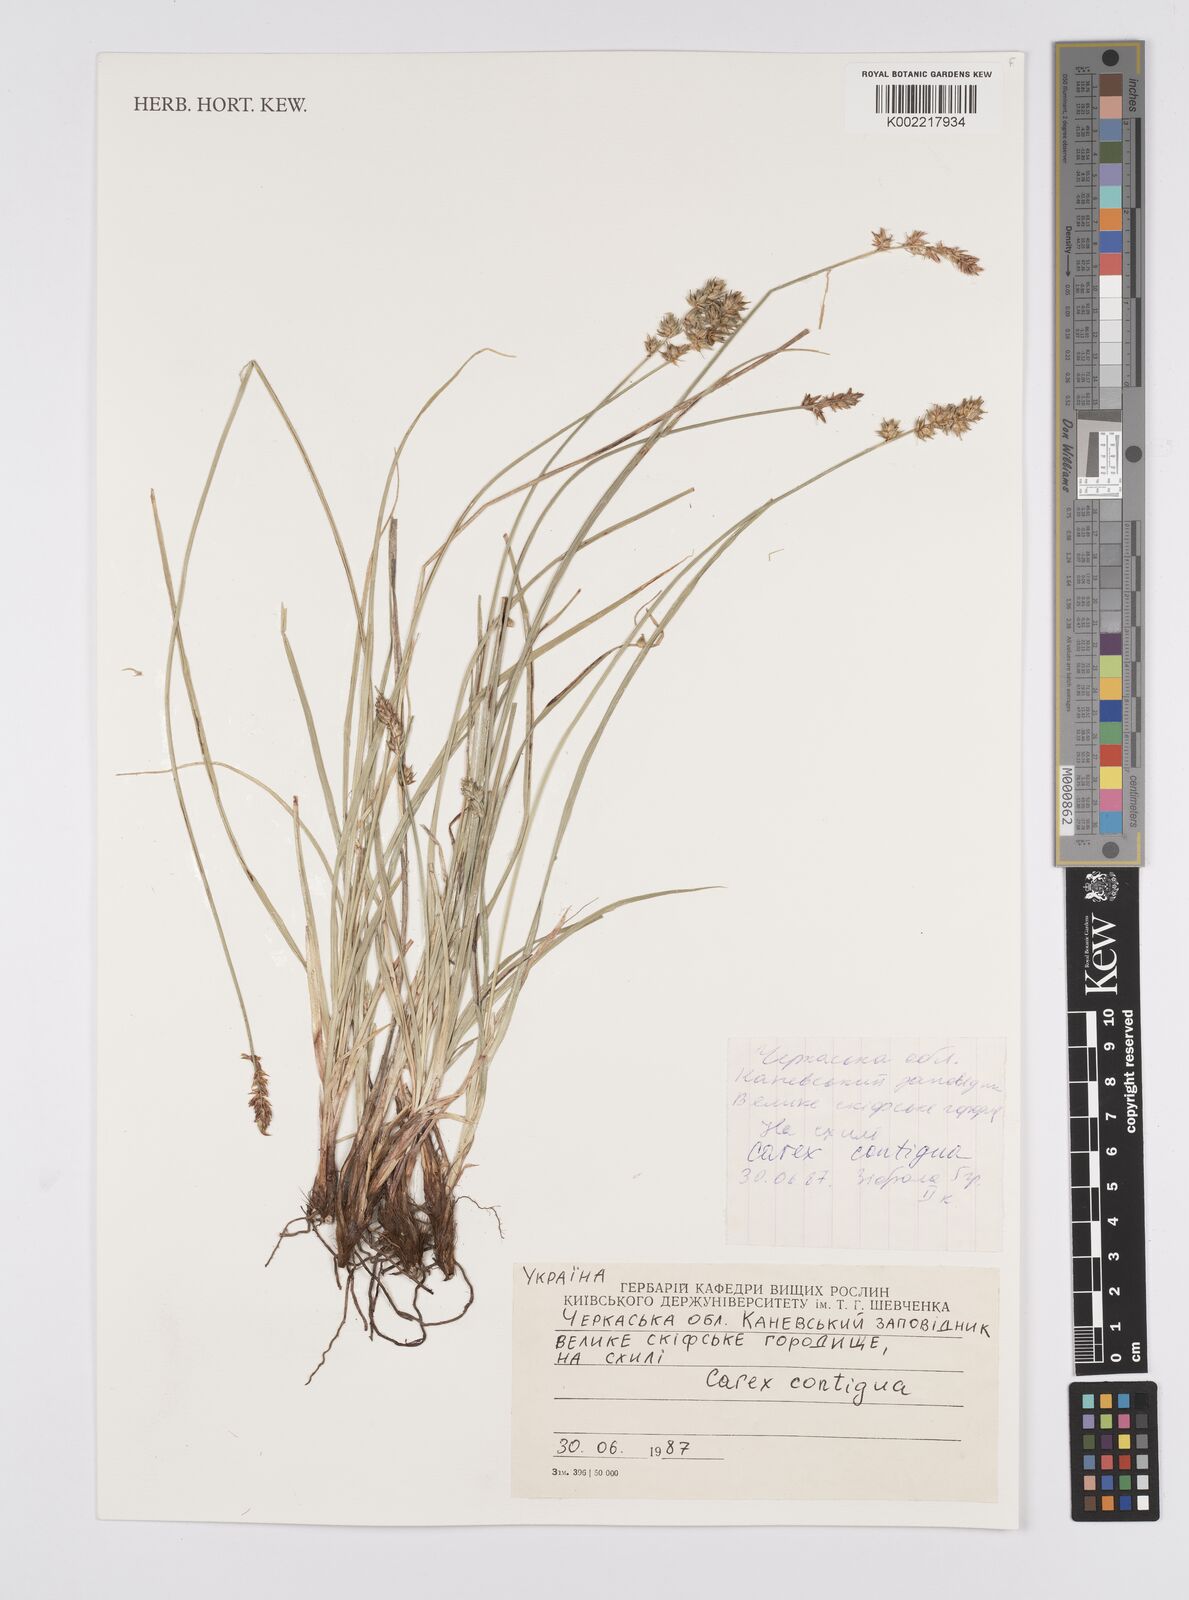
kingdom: Plantae
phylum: Tracheophyta
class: Liliopsida
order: Poales
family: Cyperaceae
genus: Carex
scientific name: Carex spicata
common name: Spiked sedge
